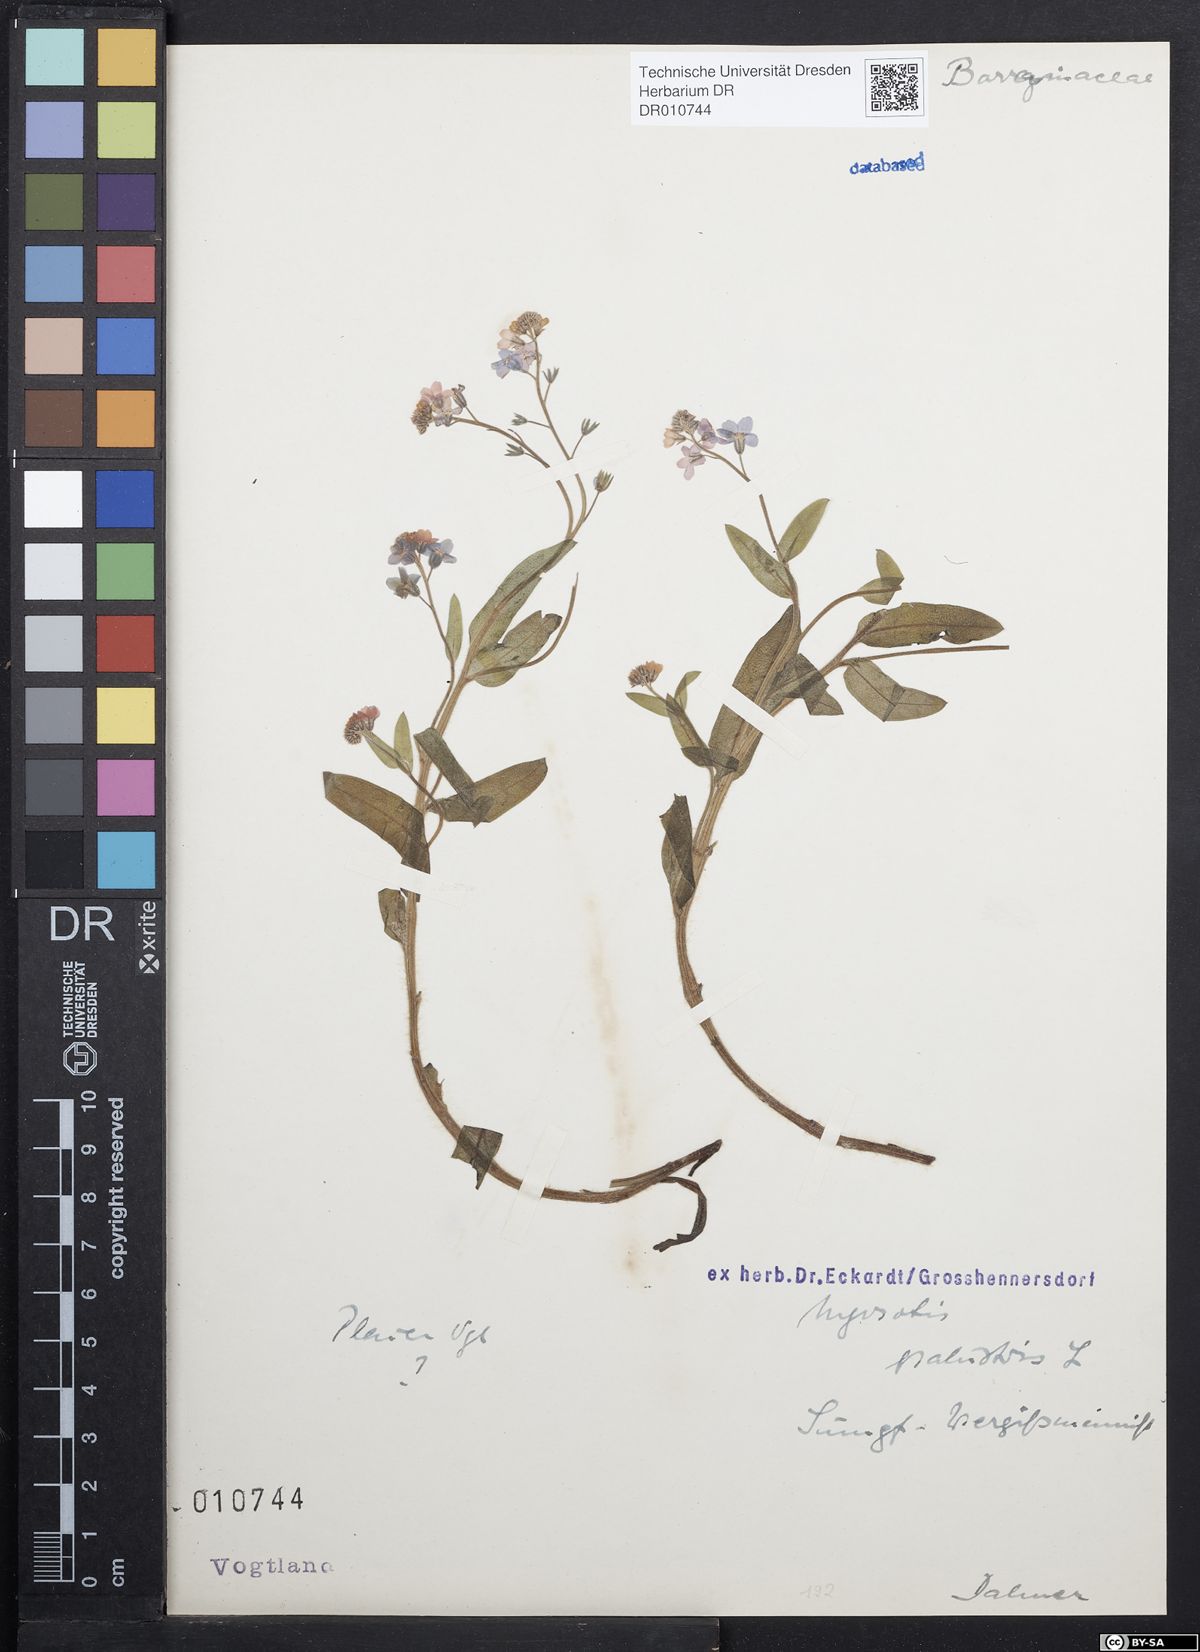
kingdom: Plantae
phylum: Tracheophyta
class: Magnoliopsida
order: Boraginales
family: Boraginaceae
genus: Myosotis
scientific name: Myosotis scorpioides
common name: Water forget-me-not
